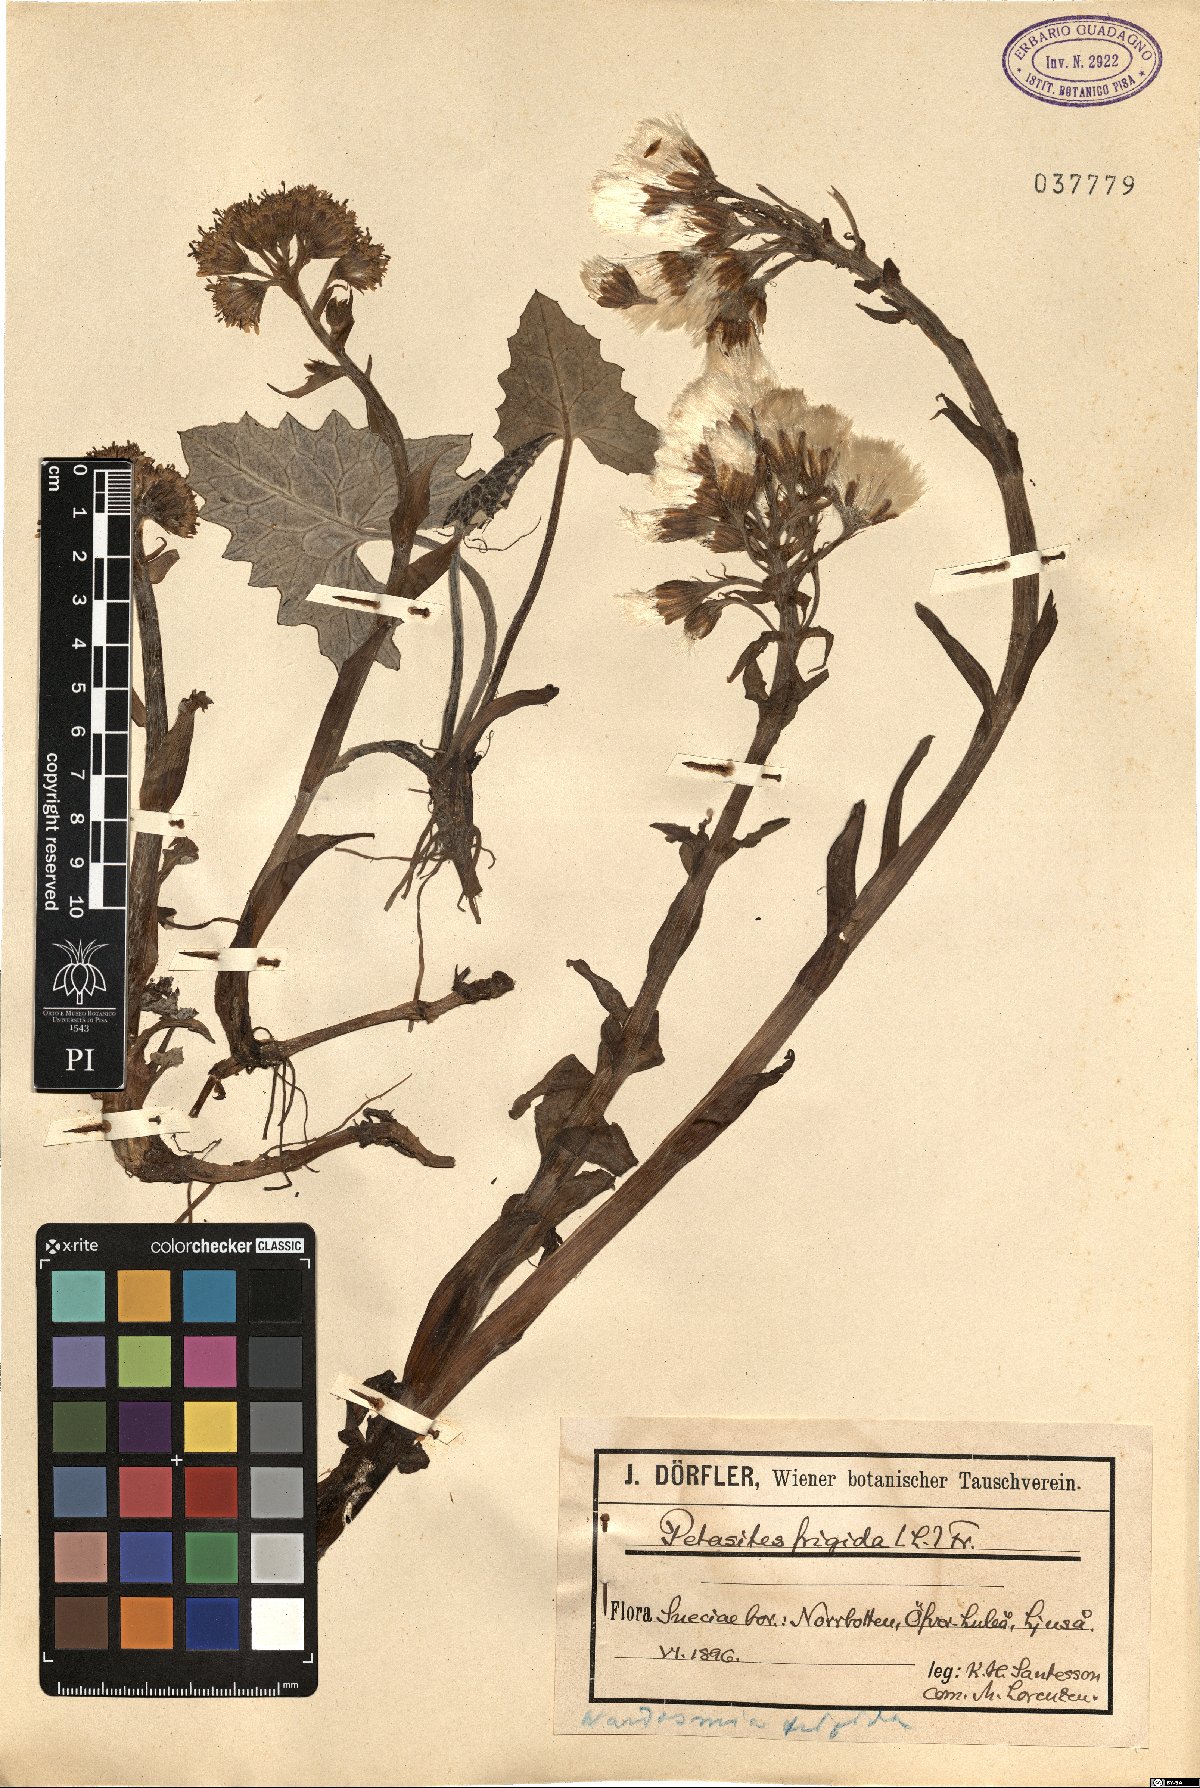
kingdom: Plantae
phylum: Tracheophyta
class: Magnoliopsida
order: Asterales
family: Asteraceae
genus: Petasites
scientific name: Petasites frigidus
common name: Arctic butterbur
